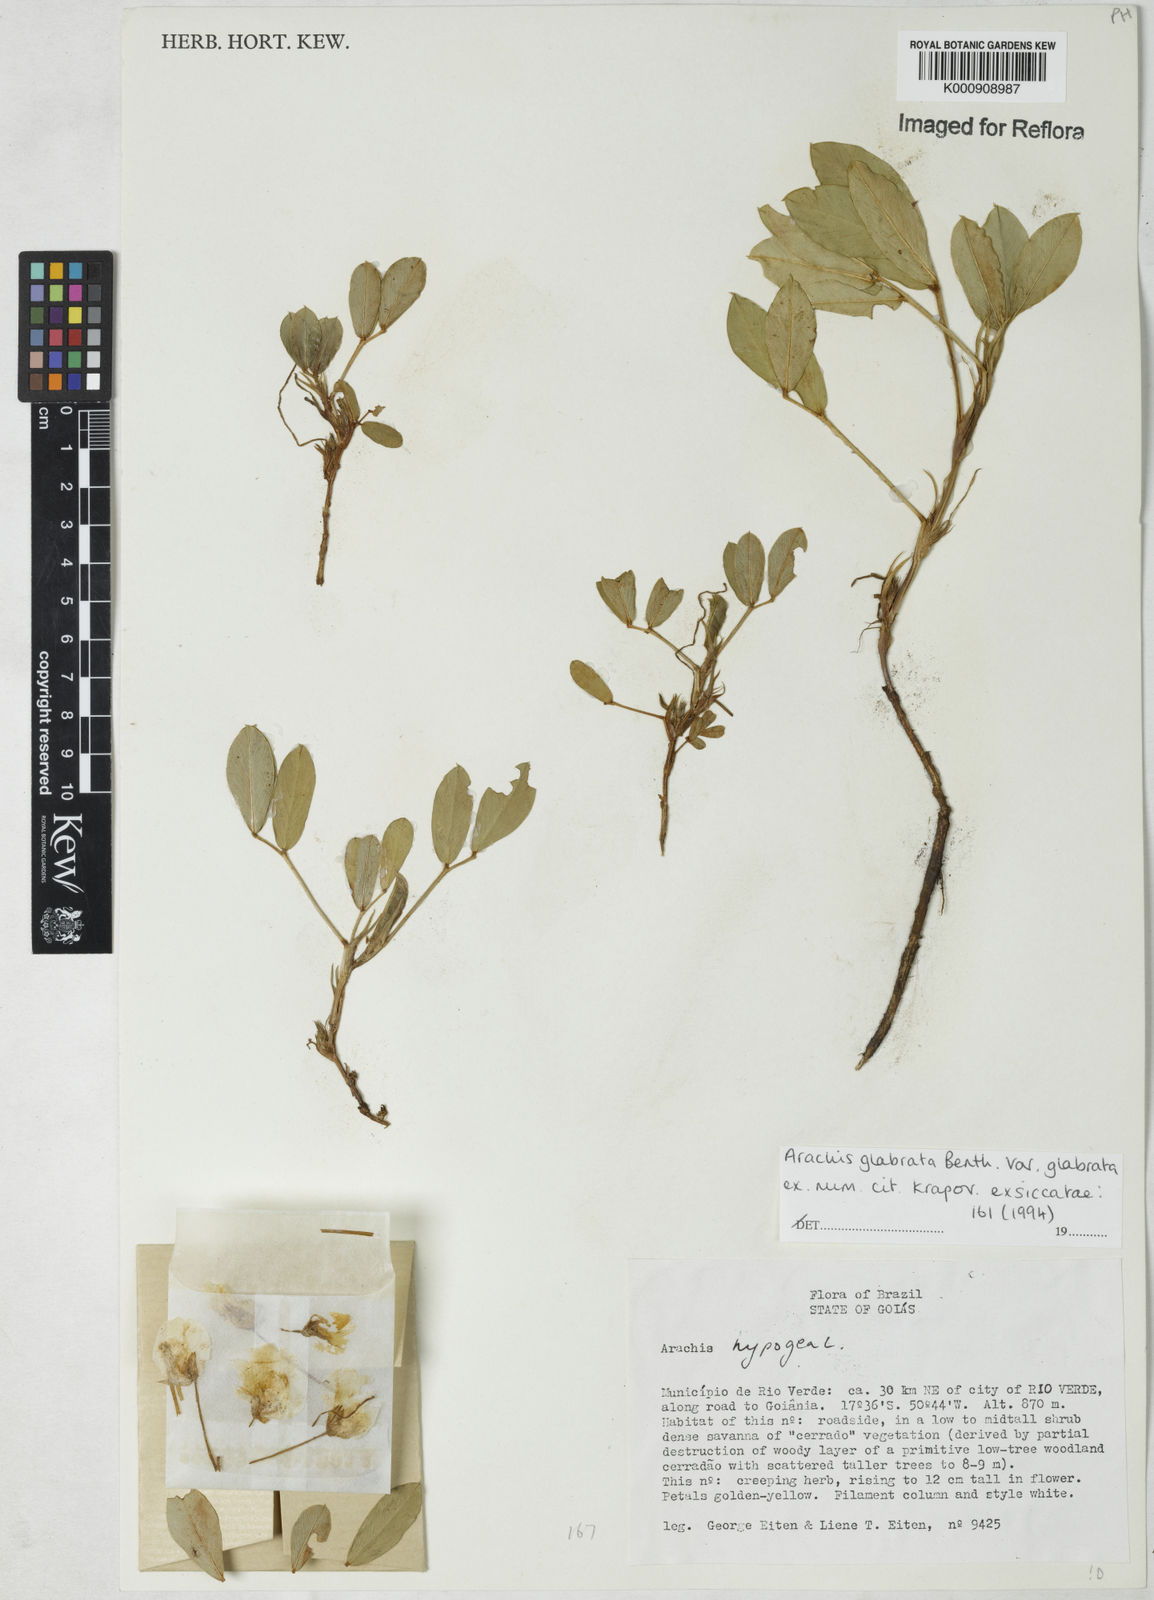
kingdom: Plantae
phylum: Tracheophyta
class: Magnoliopsida
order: Fabales
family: Fabaceae
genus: Arachis
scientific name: Arachis glabrata
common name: Rhizoma peanut
